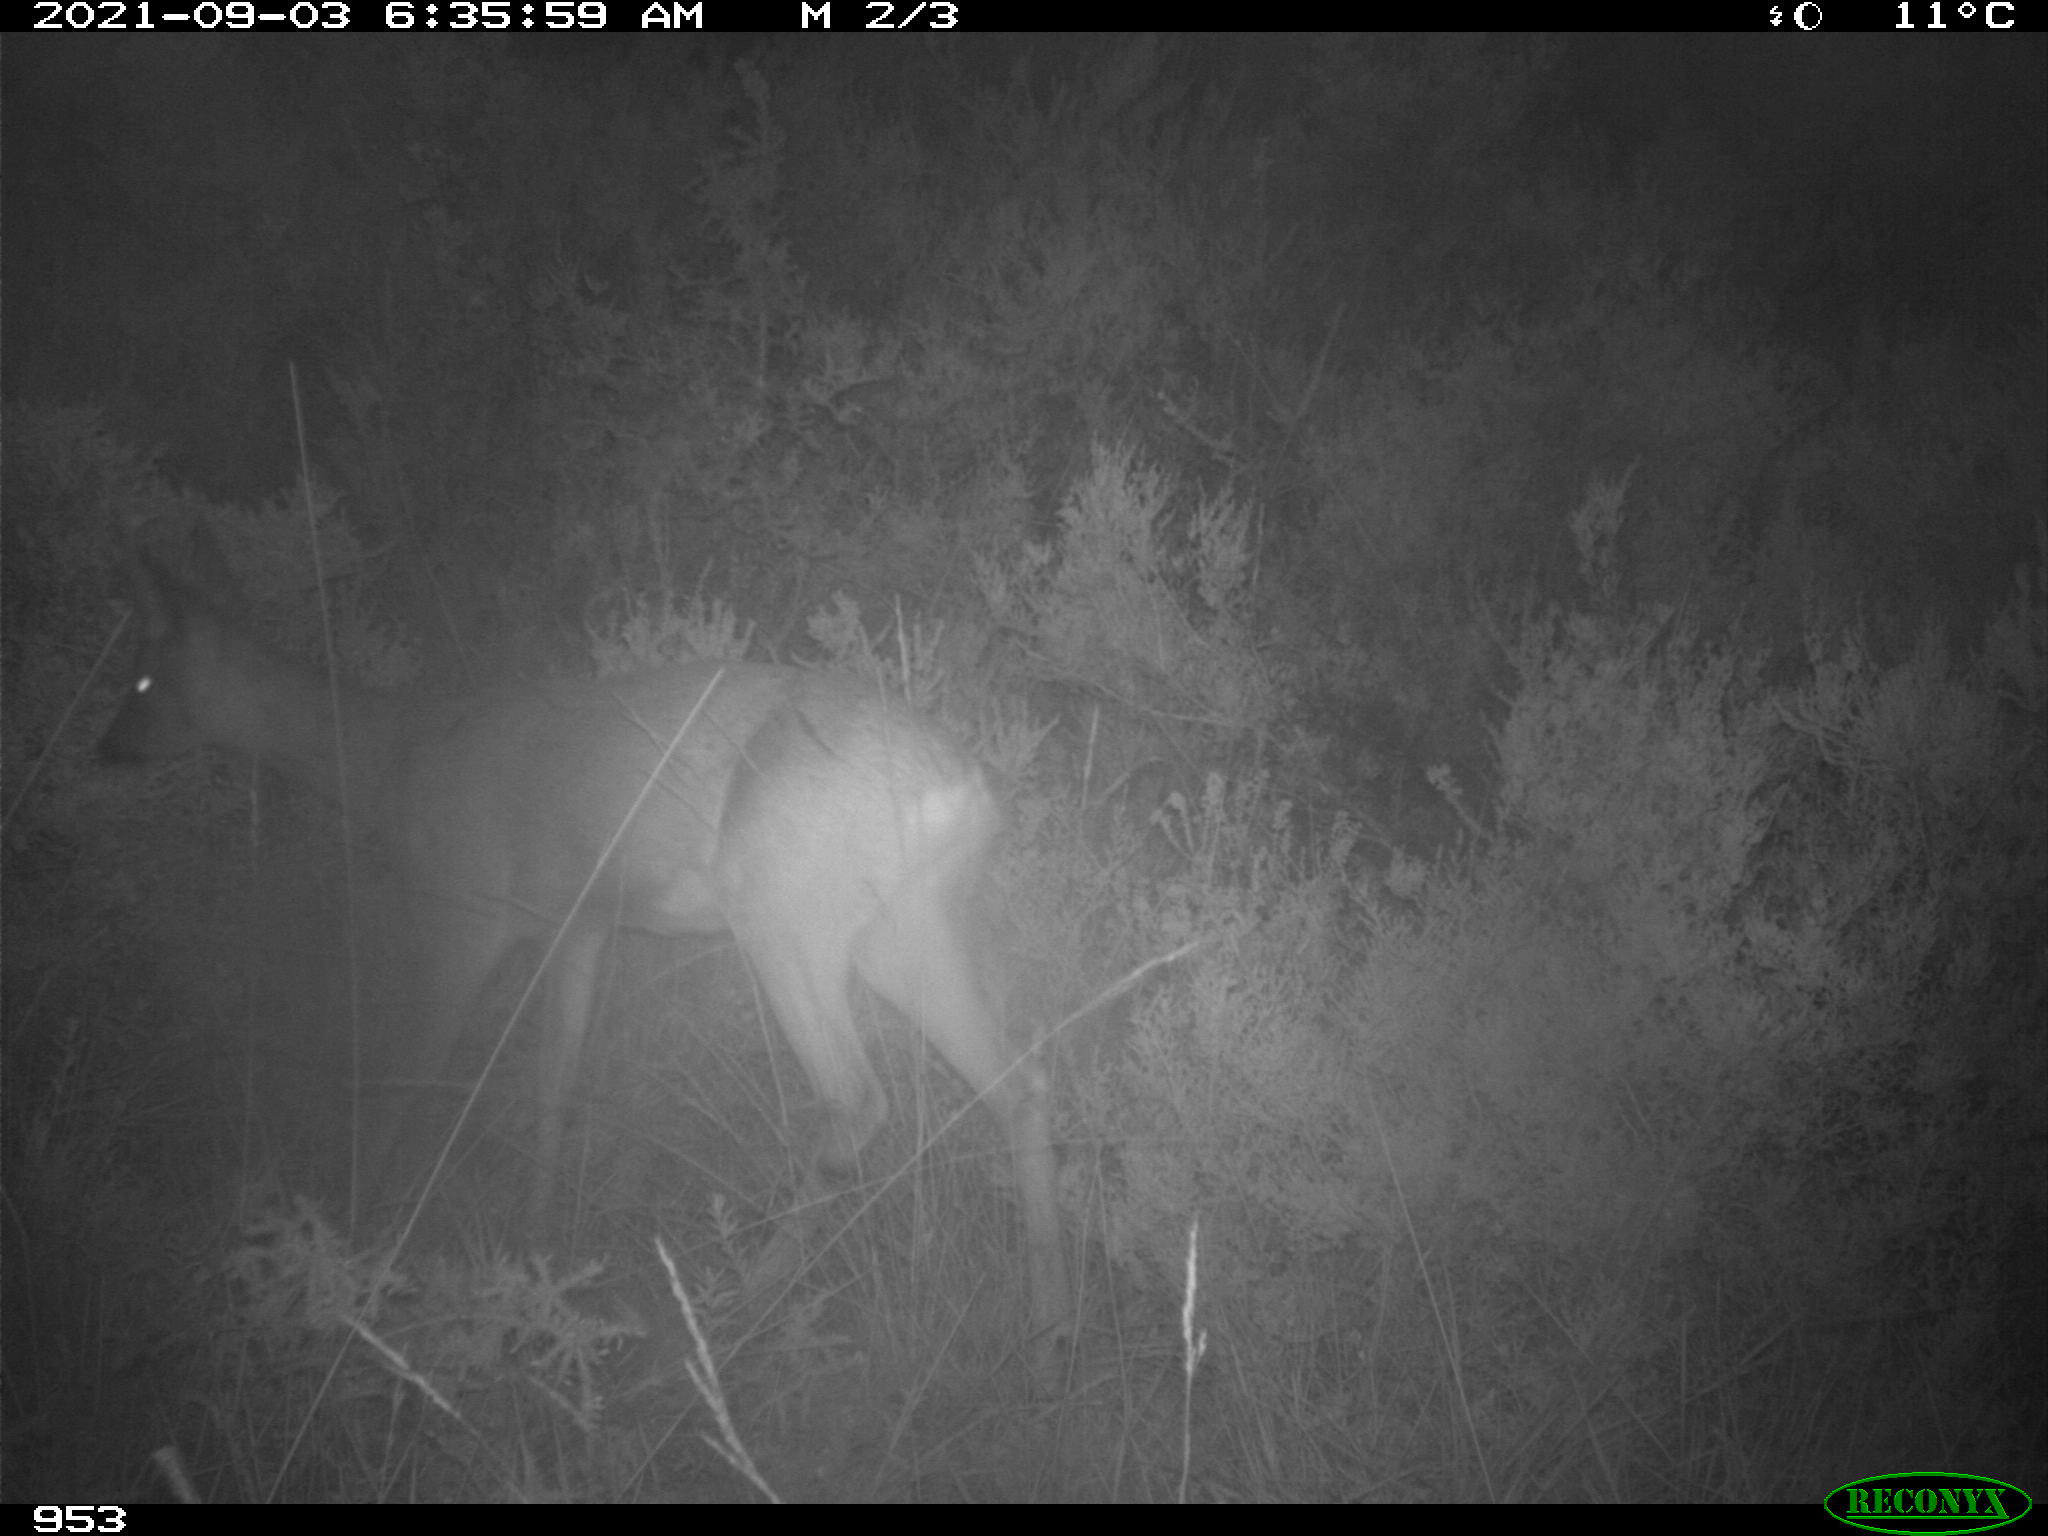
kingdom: Animalia
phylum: Chordata
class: Mammalia
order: Artiodactyla
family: Cervidae
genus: Capreolus
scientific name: Capreolus capreolus
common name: Western roe deer
